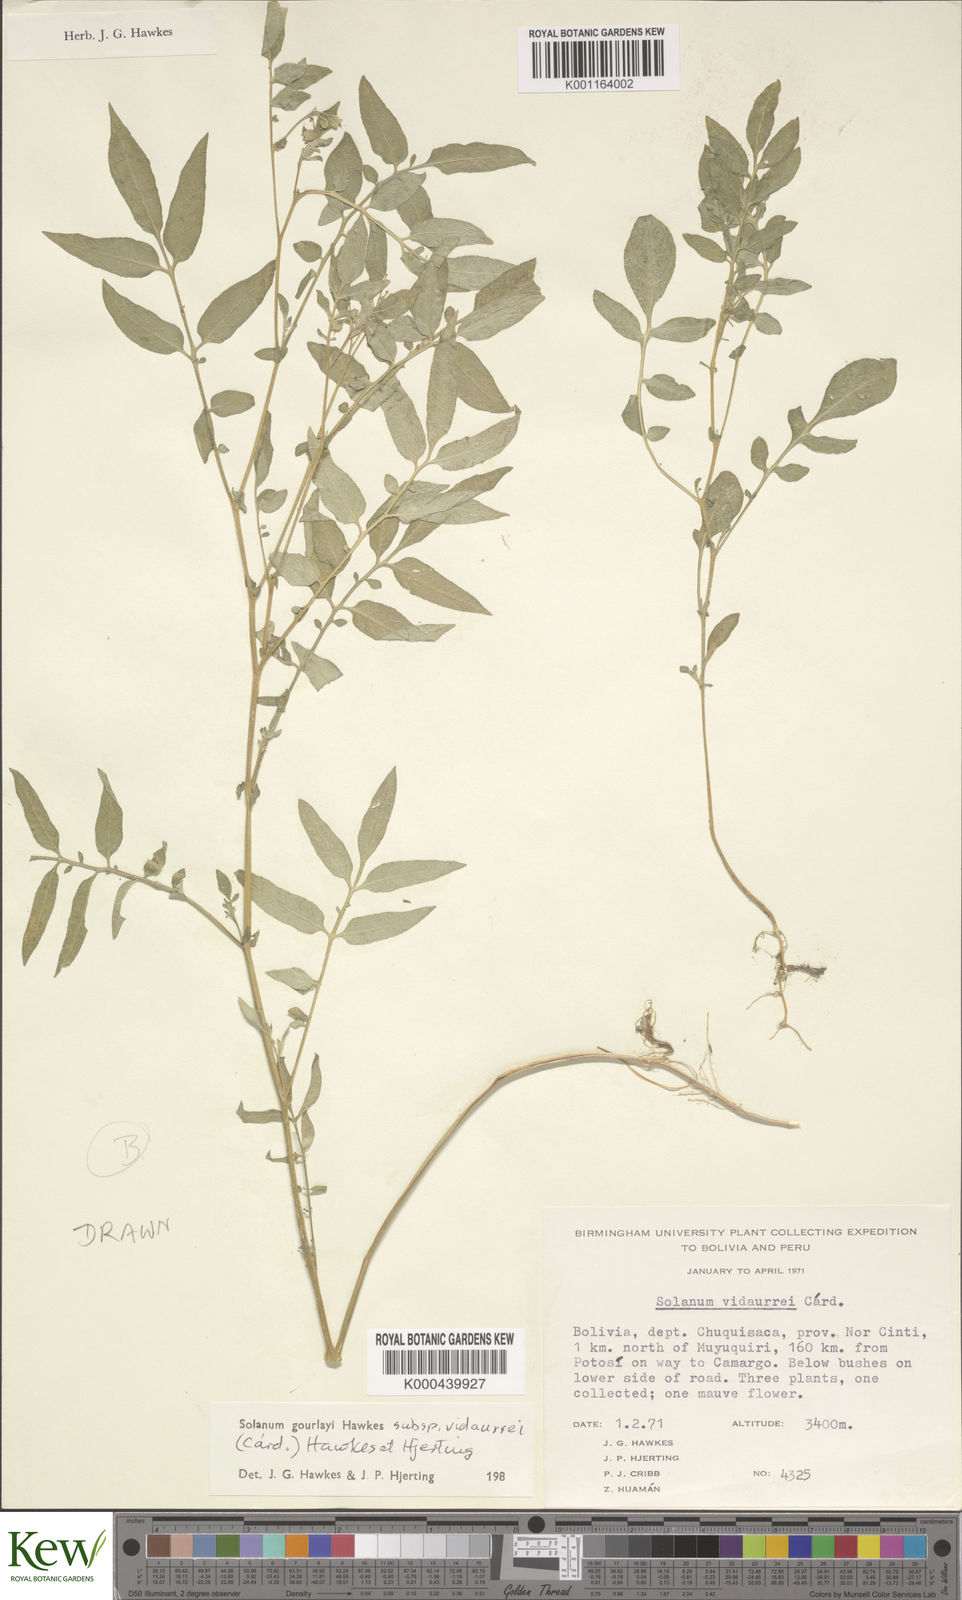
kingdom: Plantae
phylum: Tracheophyta
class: Magnoliopsida
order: Solanales
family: Solanaceae
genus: Solanum
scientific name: Solanum brevicaule
